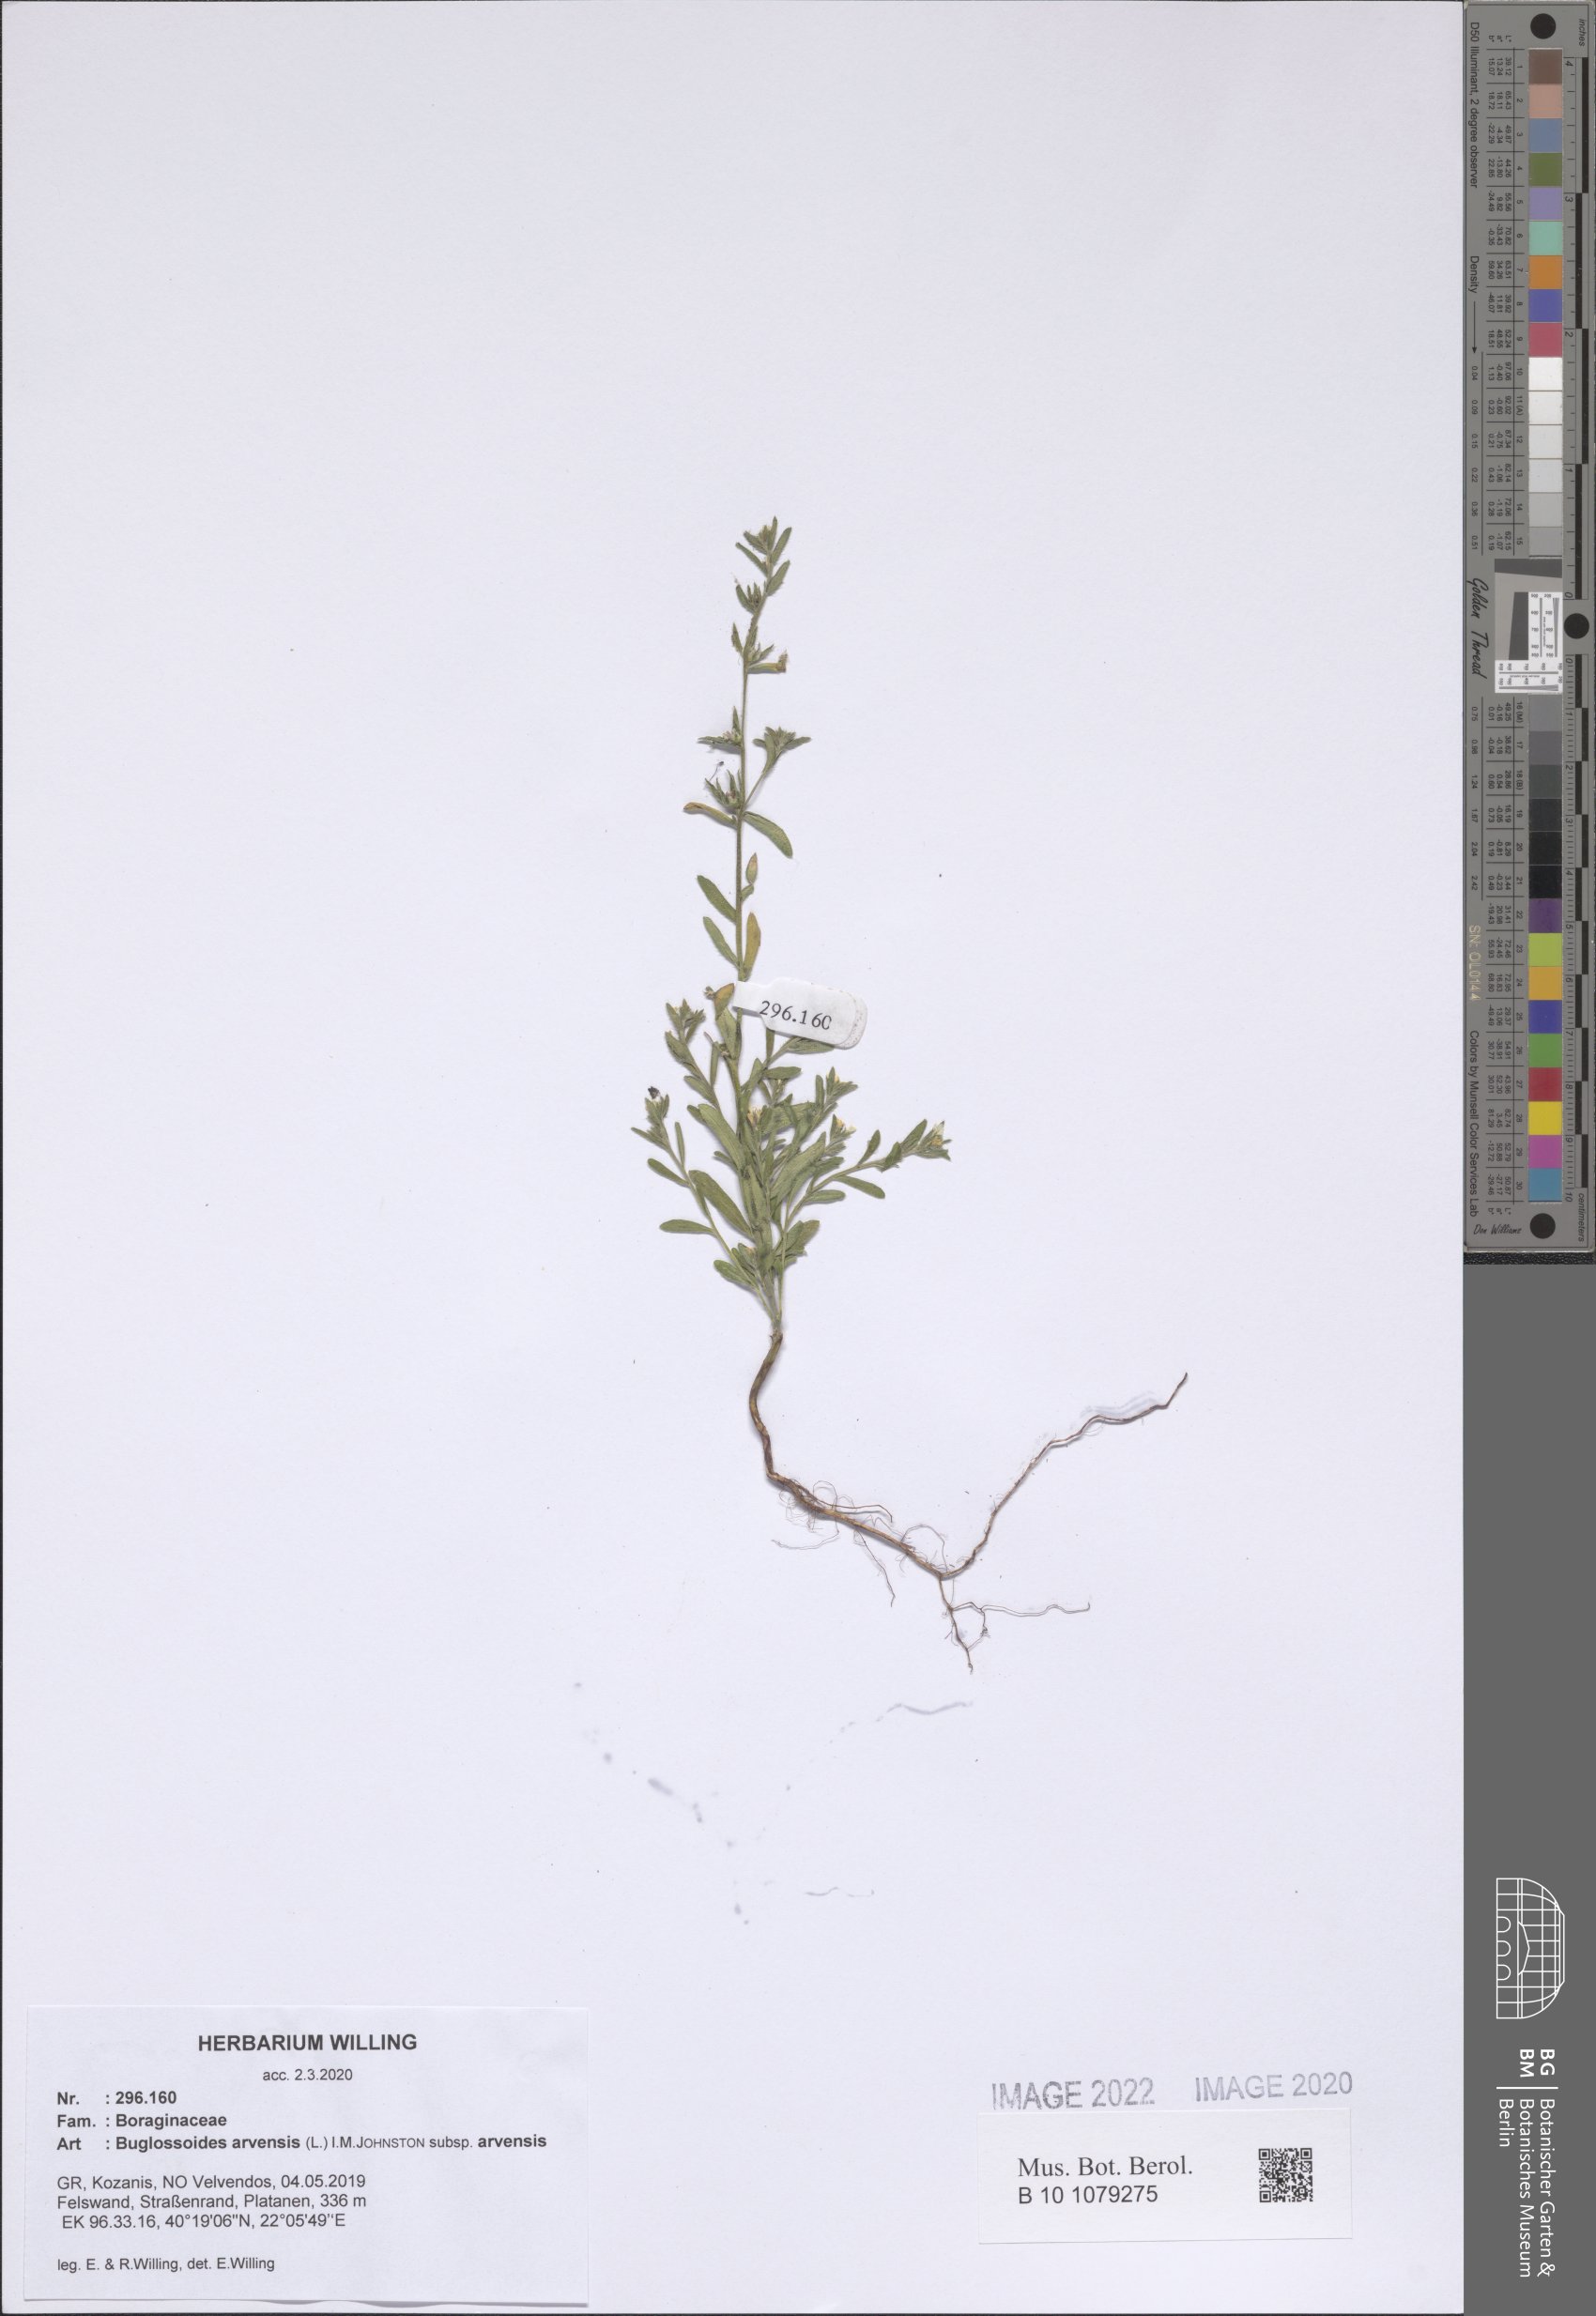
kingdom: Plantae
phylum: Tracheophyta
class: Magnoliopsida
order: Boraginales
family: Boraginaceae
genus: Buglossoides
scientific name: Buglossoides arvensis
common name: Corn gromwell
